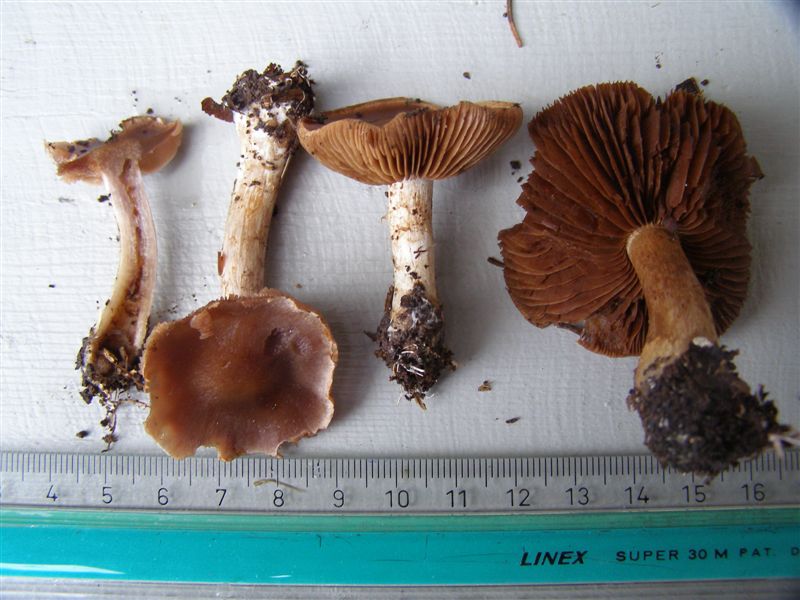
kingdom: Fungi
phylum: Basidiomycota
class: Agaricomycetes
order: Agaricales
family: Cortinariaceae
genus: Cortinarius
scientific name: Cortinarius saturninus
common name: brunviolet slørhat
